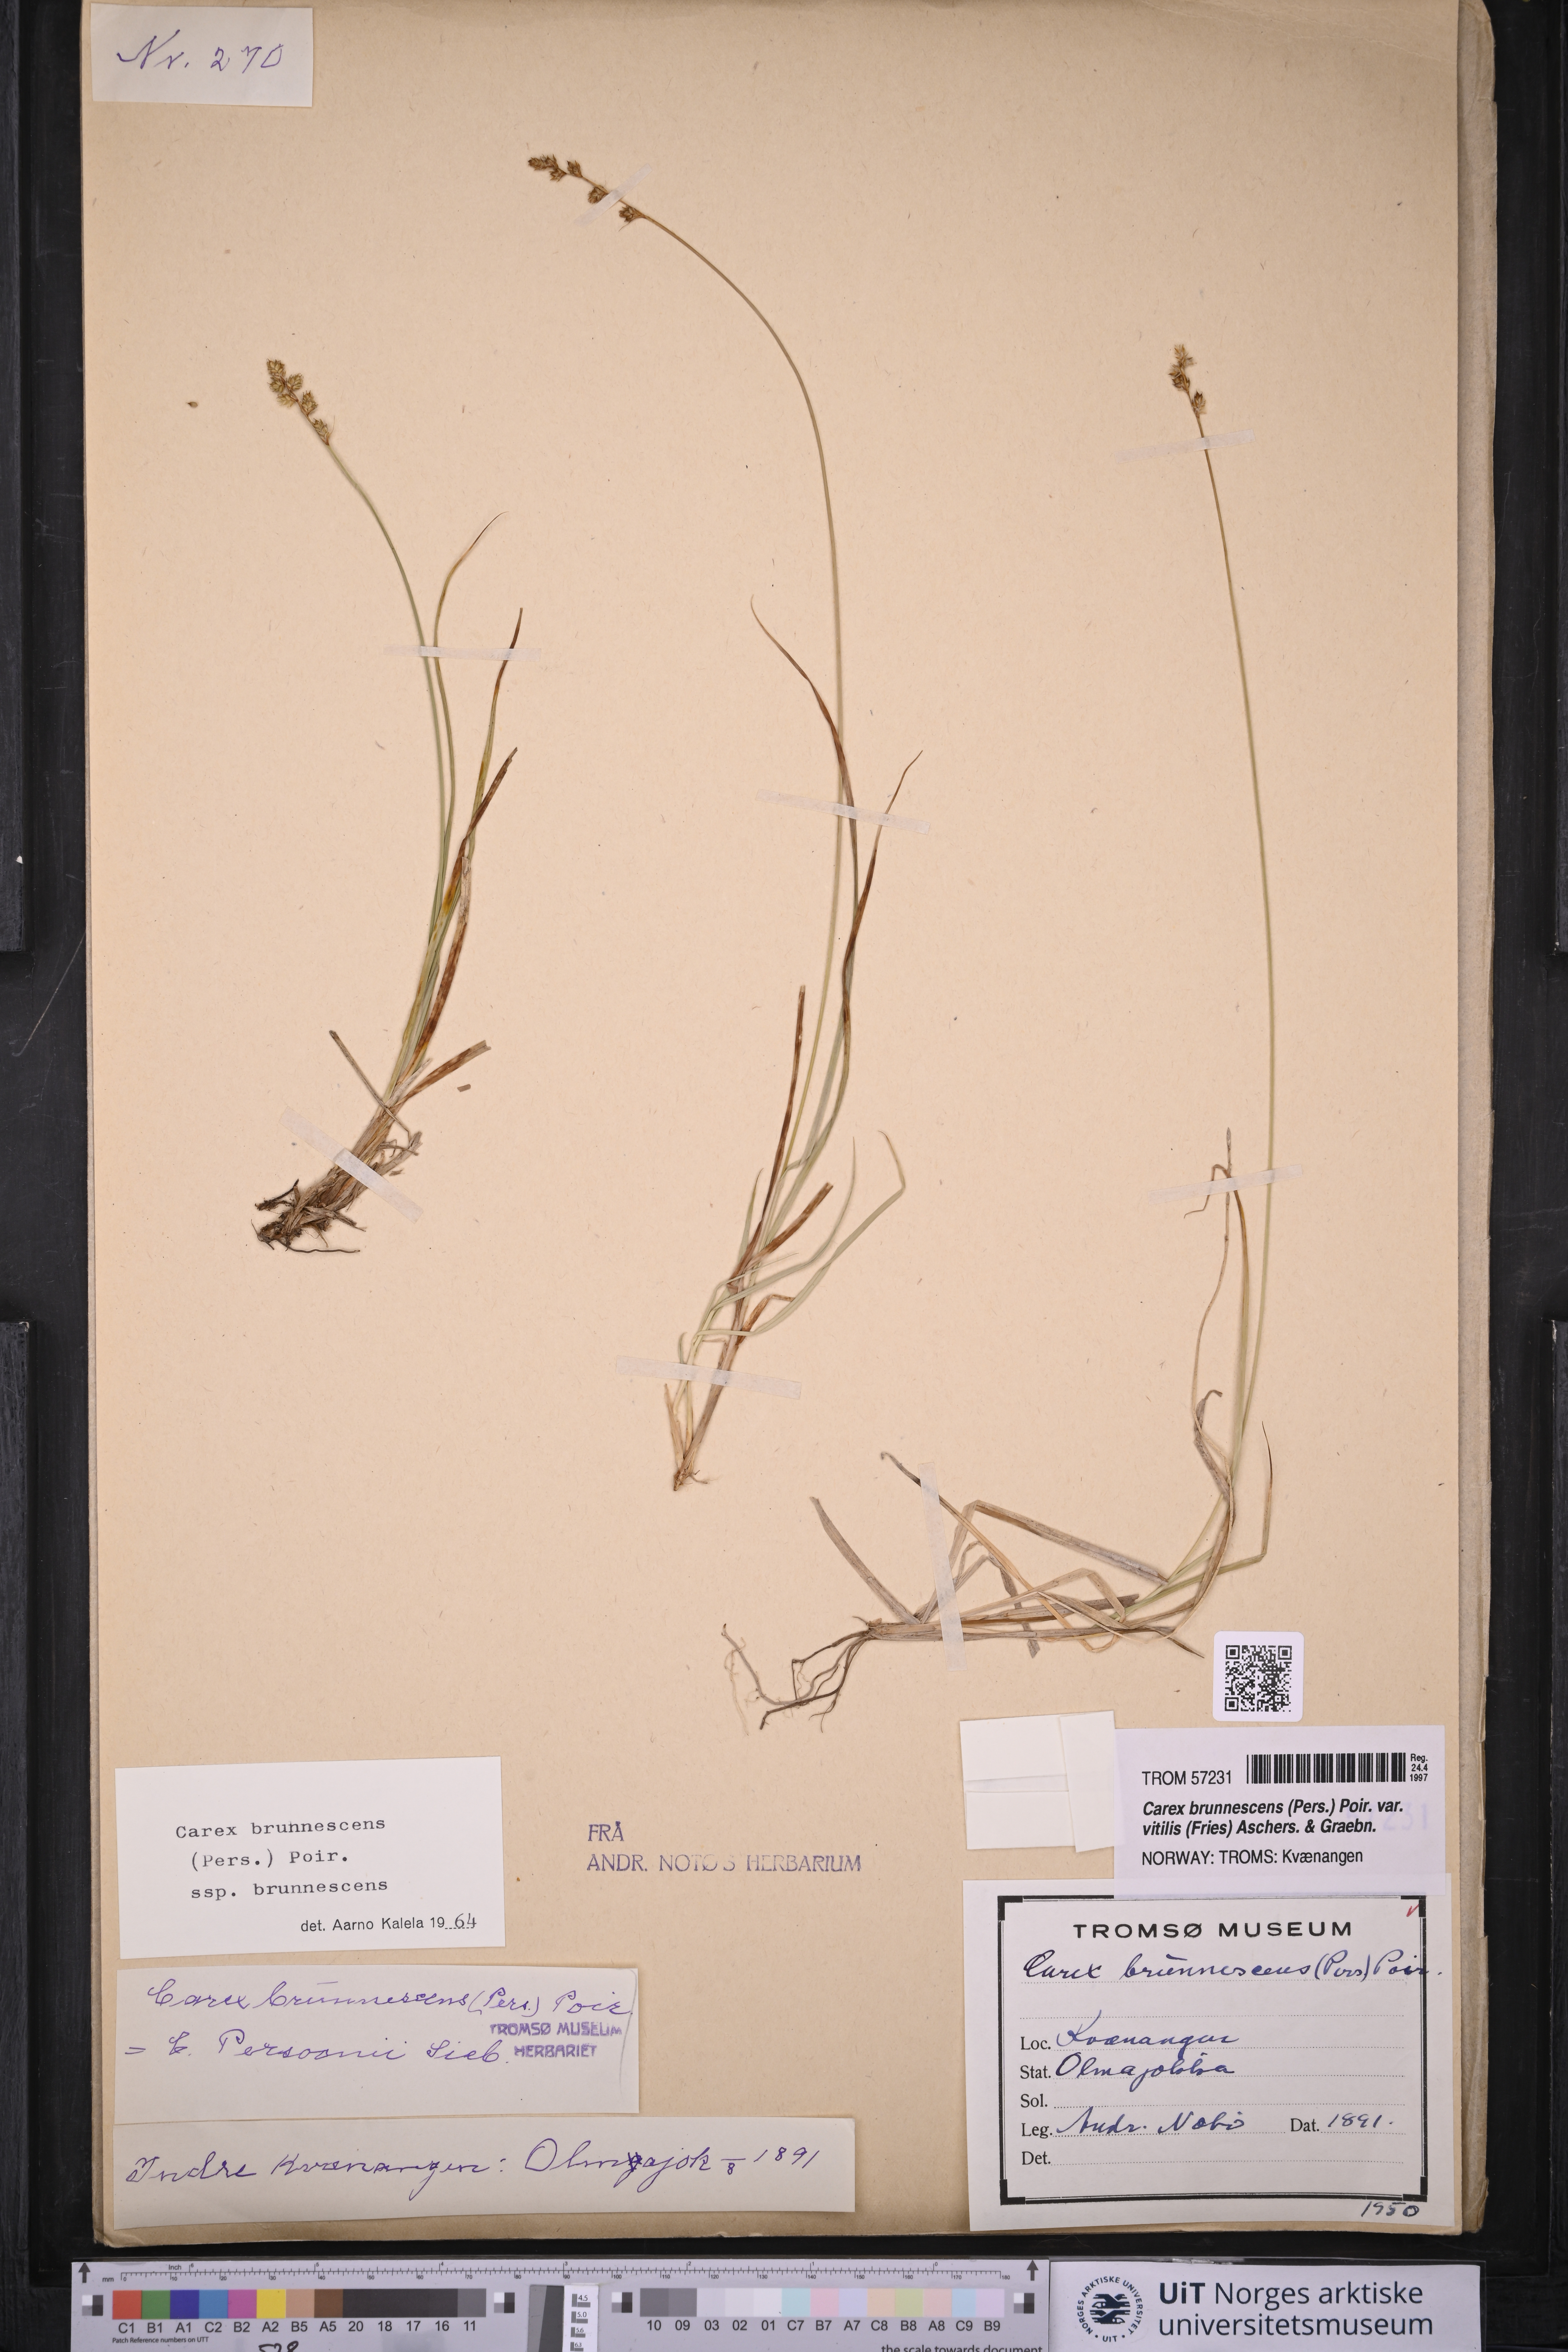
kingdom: Plantae
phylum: Tracheophyta
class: Liliopsida
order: Poales
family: Cyperaceae
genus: Carex
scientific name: Carex brunnescens
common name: Brown sedge
